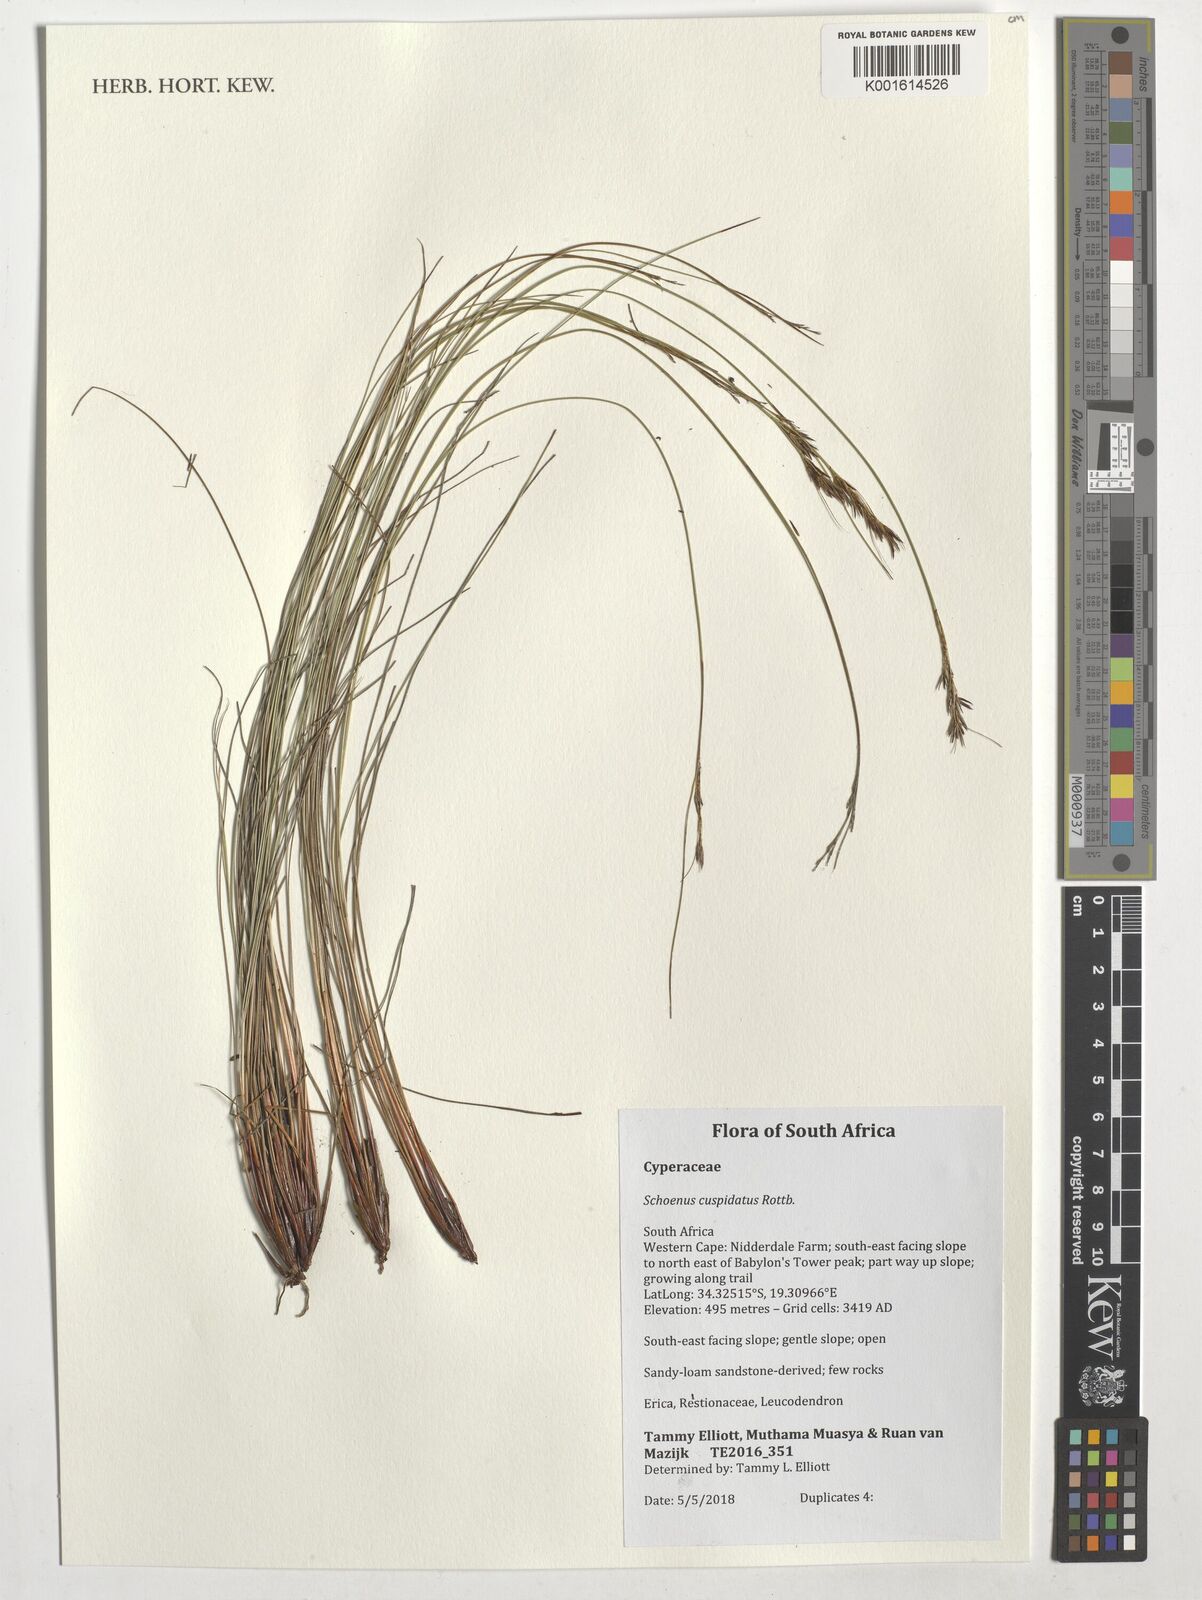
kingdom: Plantae
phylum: Tracheophyta
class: Liliopsida
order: Poales
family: Cyperaceae
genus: Schoenus
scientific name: Schoenus cuspidatus
